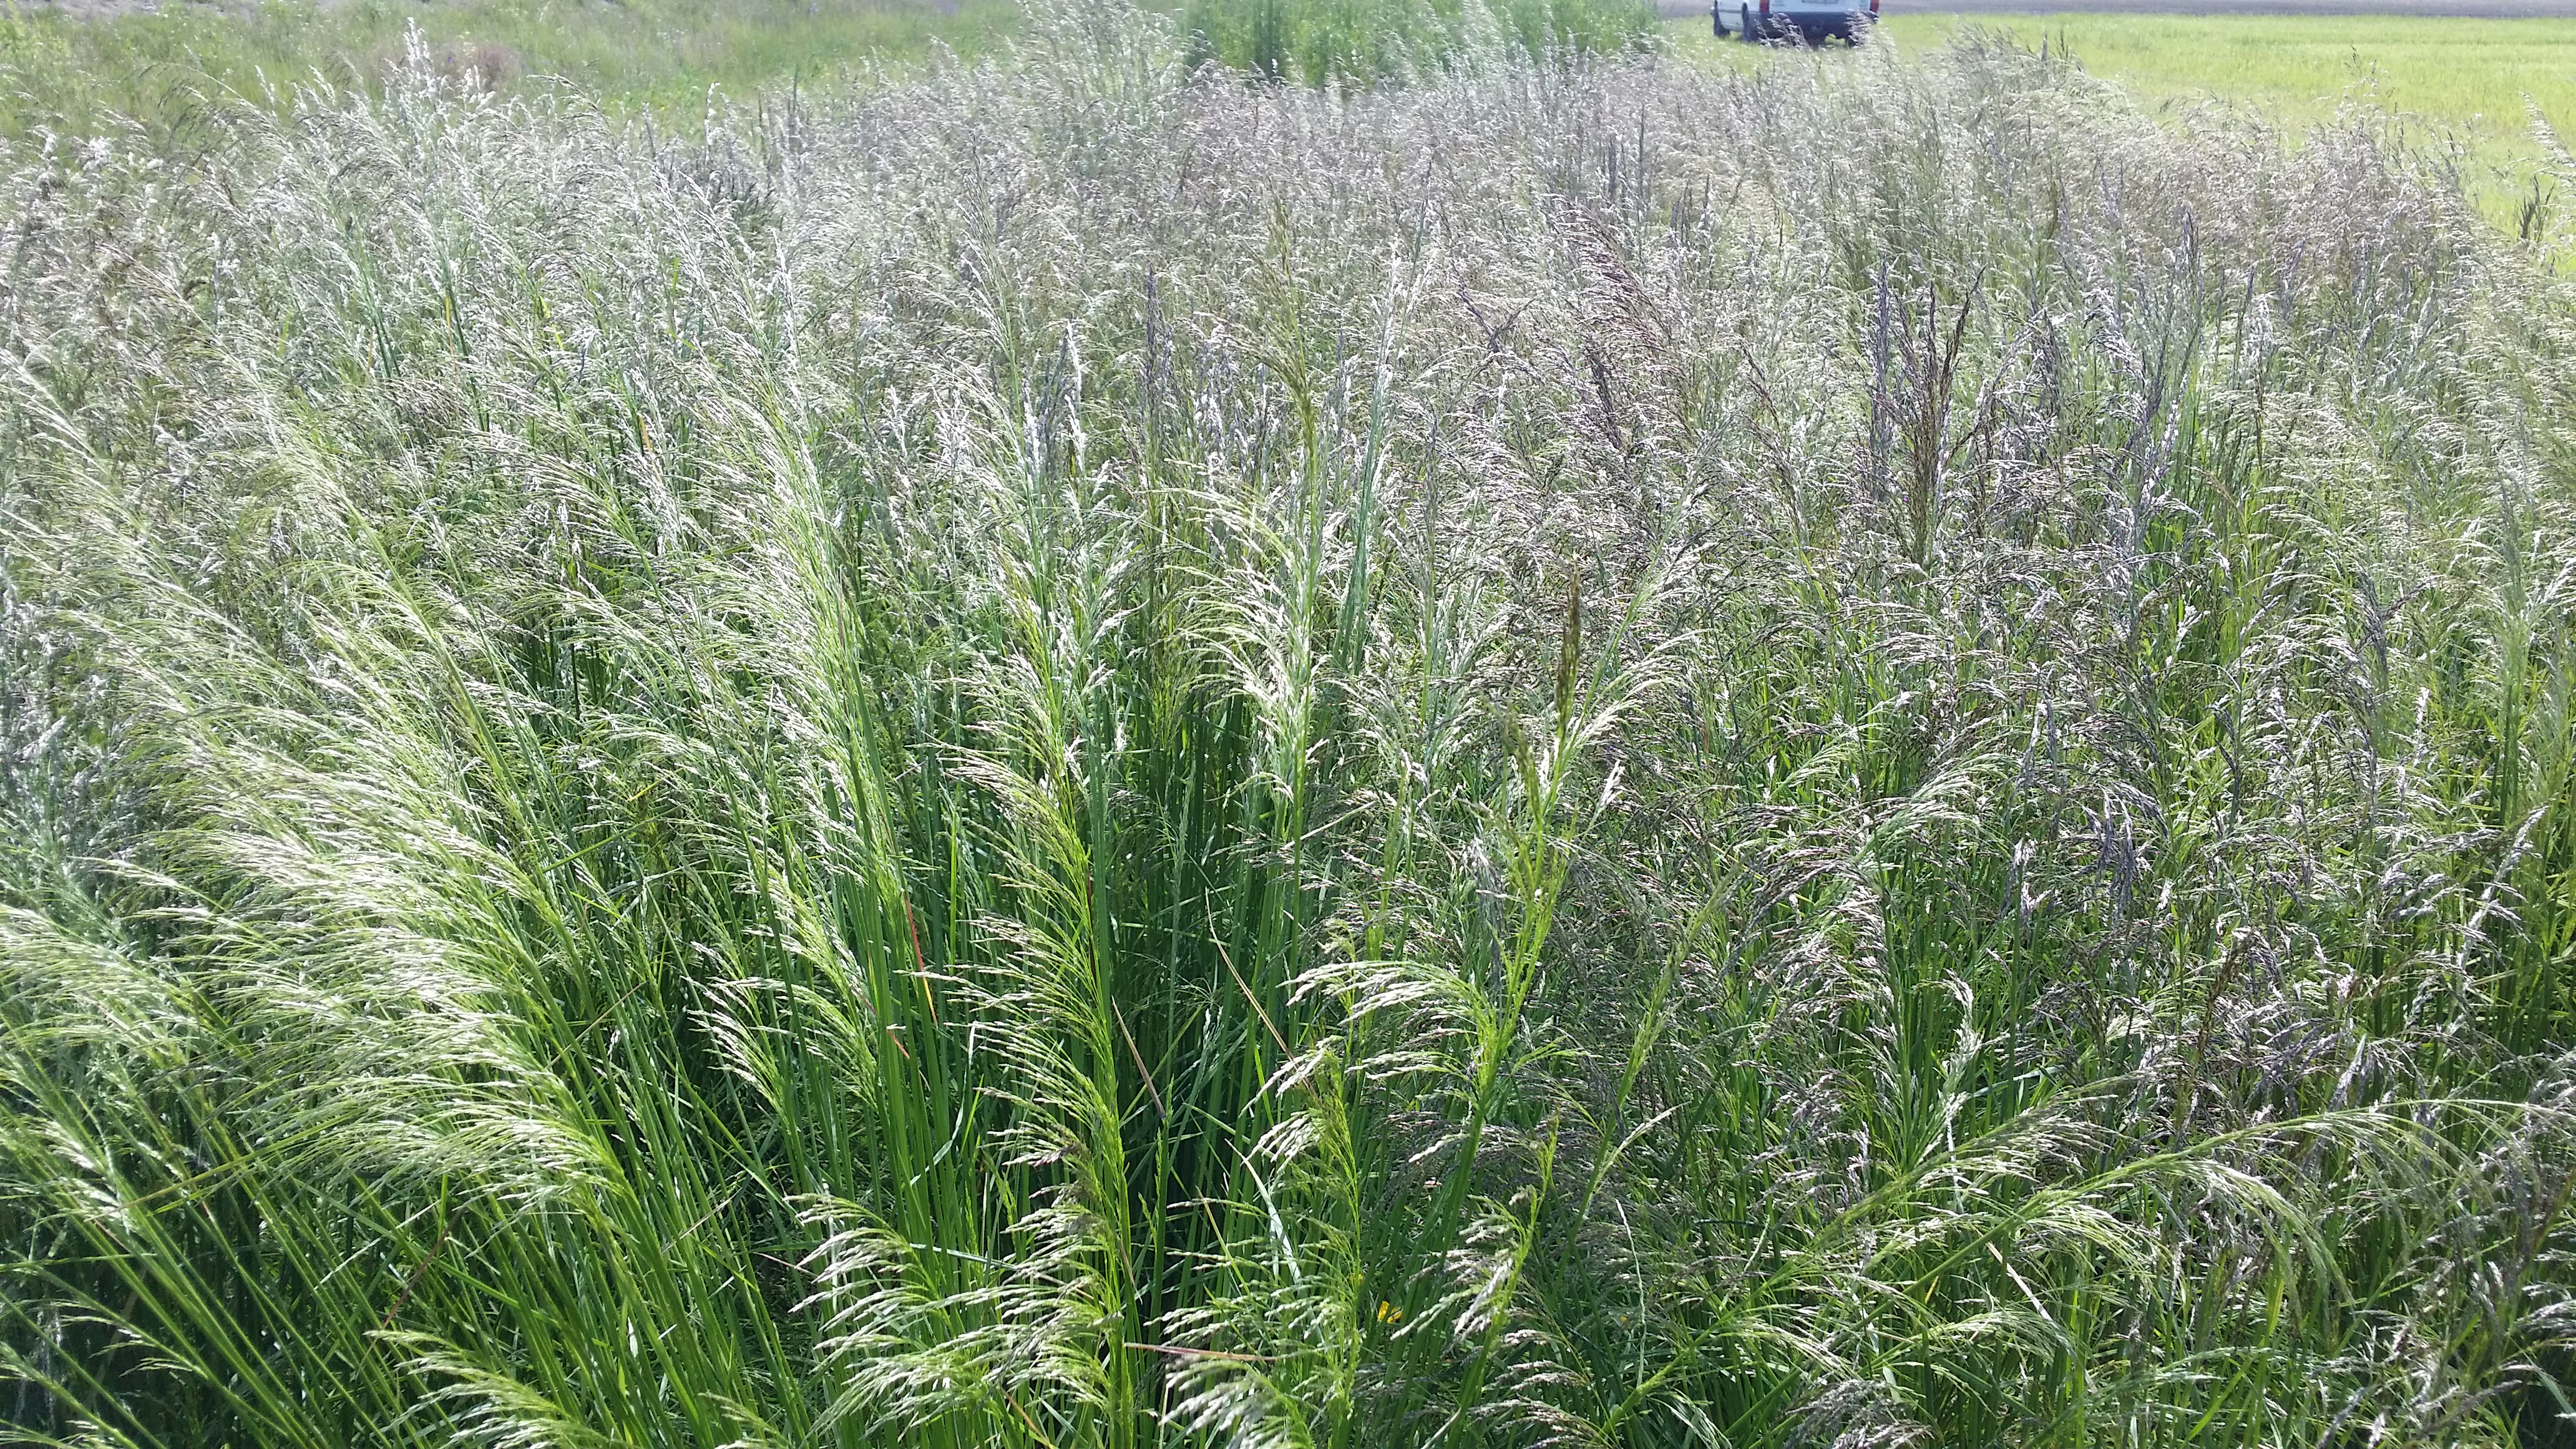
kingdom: Plantae
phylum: Tracheophyta
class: Liliopsida
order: Poales
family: Poaceae
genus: Deschampsia
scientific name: Deschampsia cespitosa
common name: Tufted hair-grass
